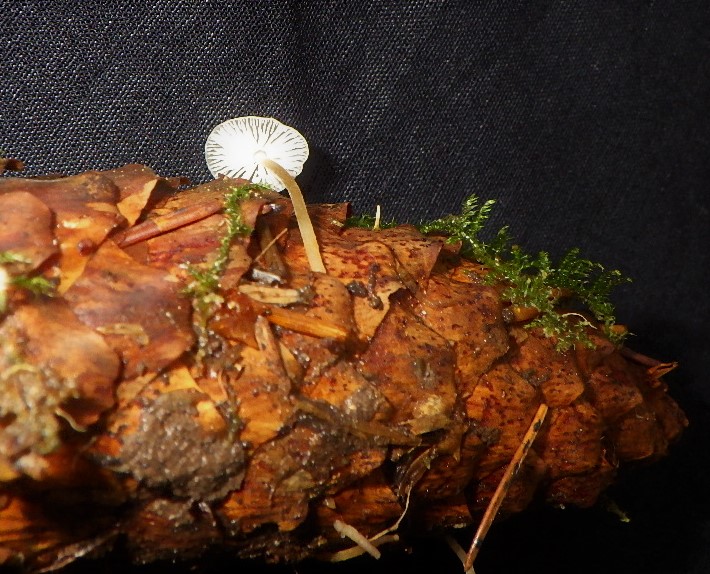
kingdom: Fungi
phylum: Basidiomycota
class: Agaricomycetes
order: Agaricales
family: Physalacriaceae
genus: Strobilurus
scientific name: Strobilurus esculentus
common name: gran-koglehat
